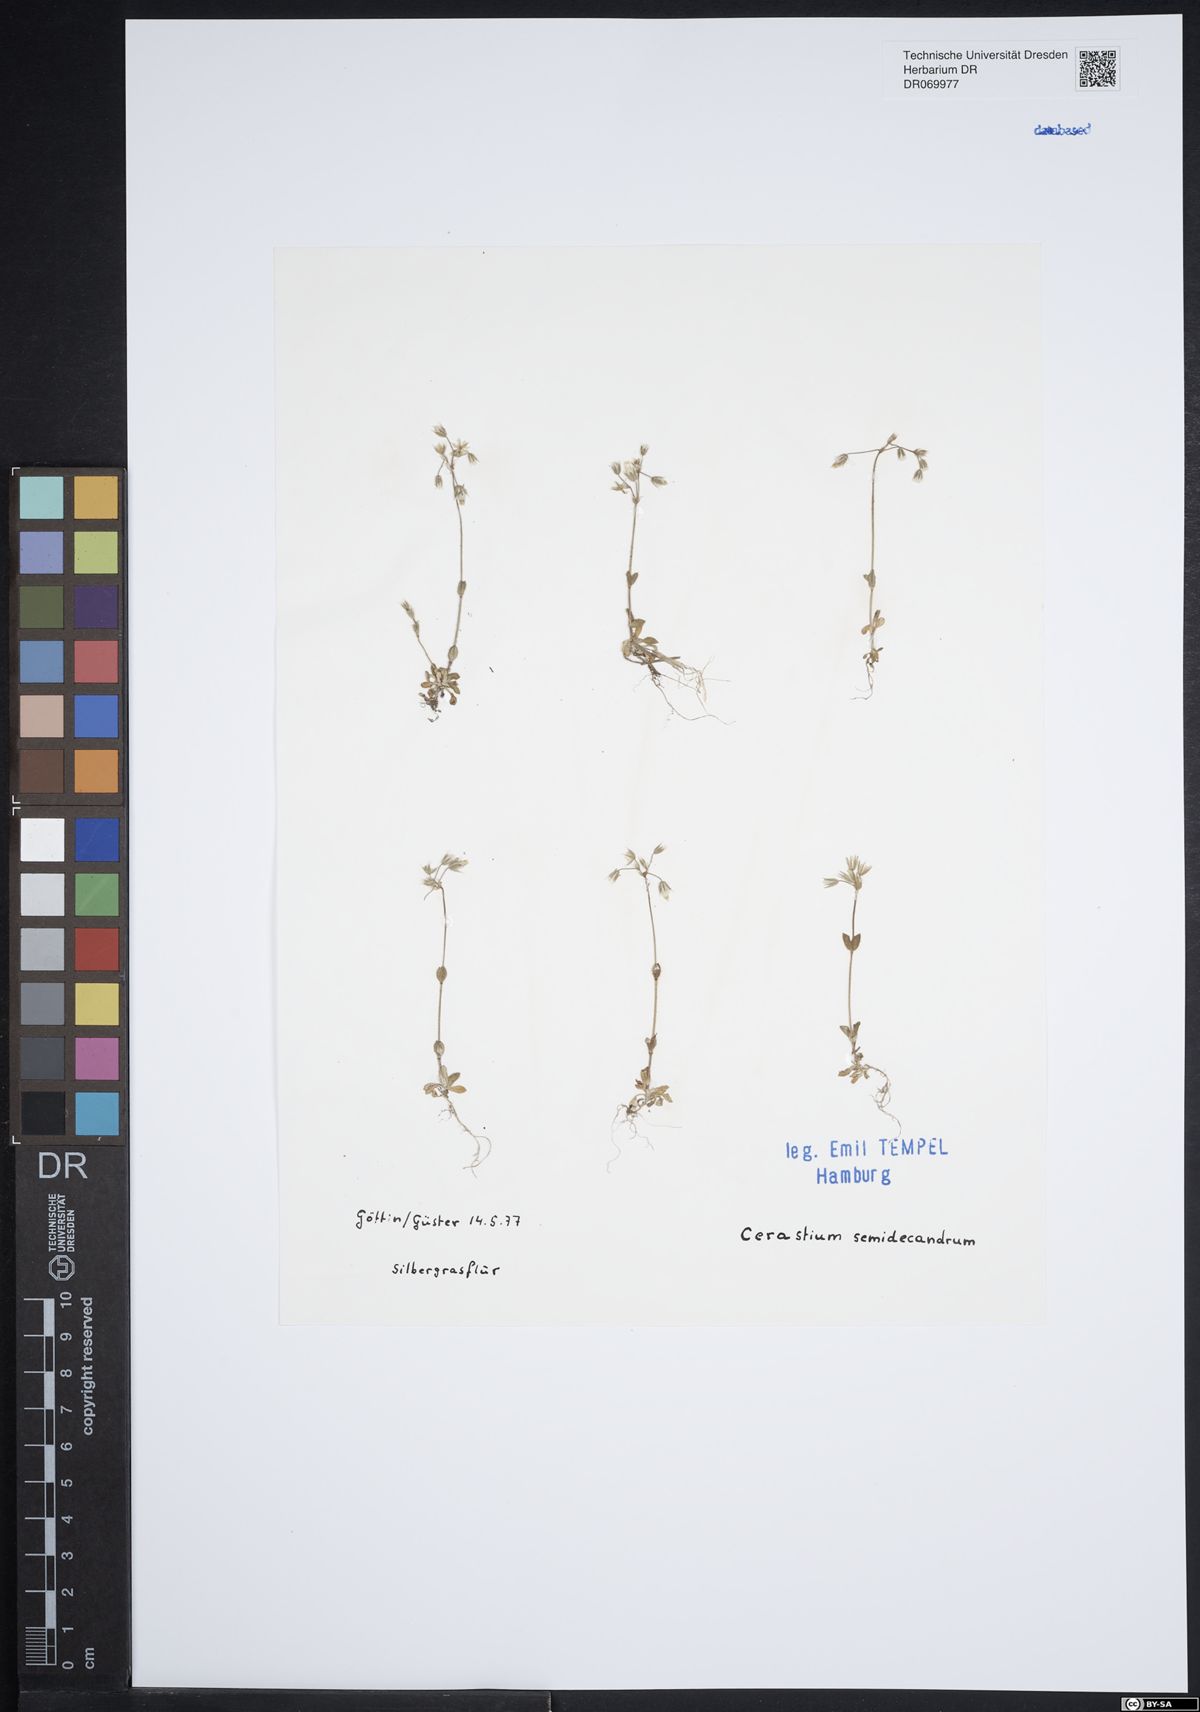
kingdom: Plantae
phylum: Tracheophyta
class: Magnoliopsida
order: Caryophyllales
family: Caryophyllaceae
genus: Cerastium
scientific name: Cerastium semidecandrum
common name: Little mouse-ear
